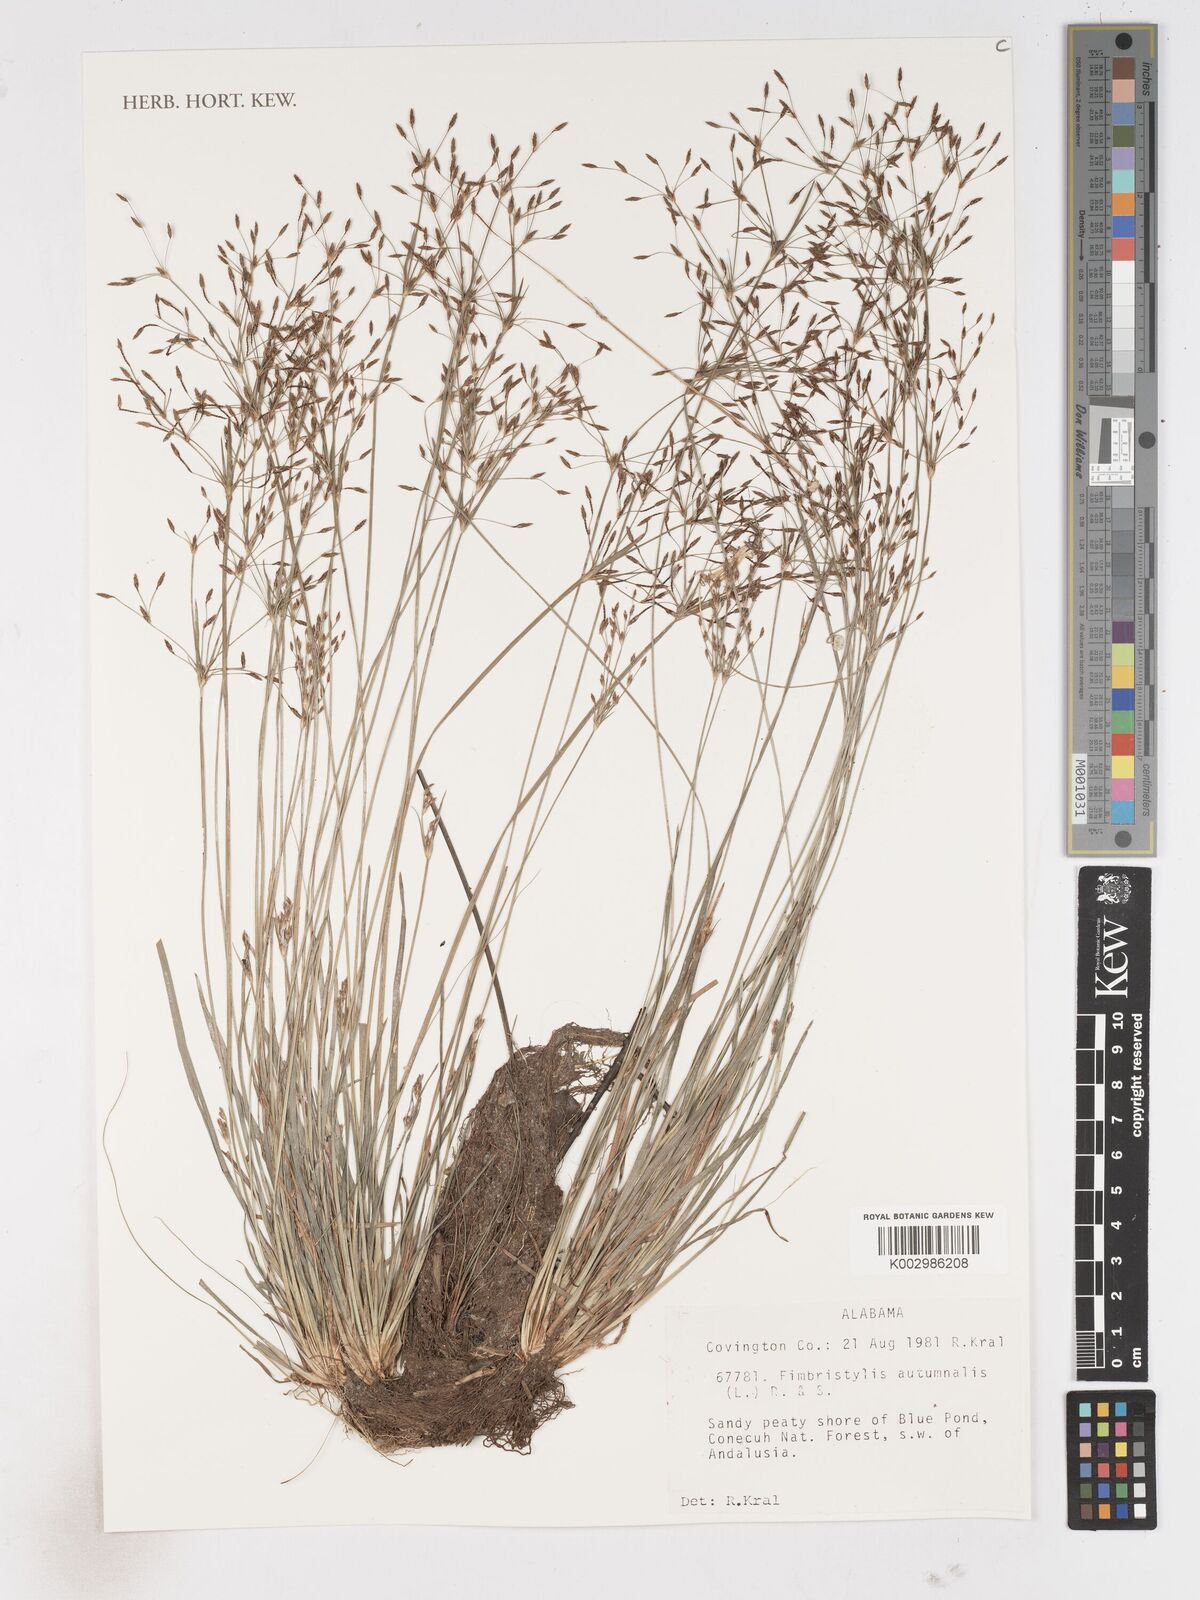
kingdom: Plantae
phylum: Tracheophyta
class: Liliopsida
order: Poales
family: Cyperaceae
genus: Fimbristylis
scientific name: Fimbristylis autumnalis
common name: Slender fimbristylis
